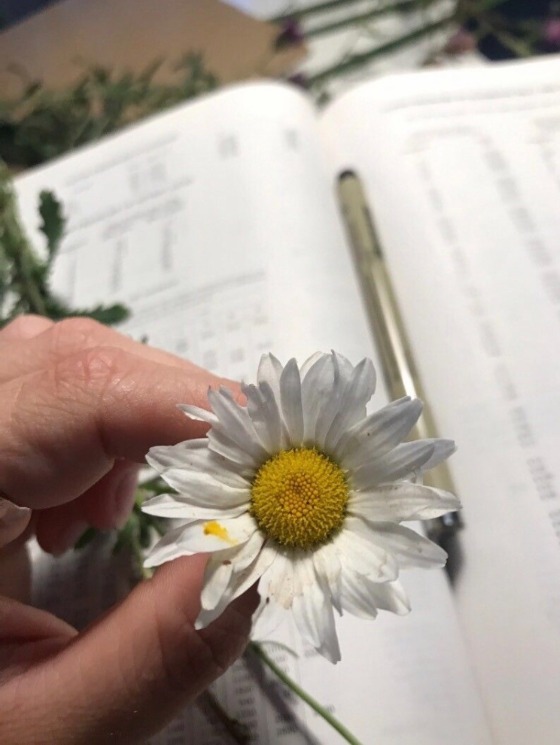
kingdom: Plantae
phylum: Tracheophyta
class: Magnoliopsida
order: Asterales
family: Asteraceae
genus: Leucanthemum
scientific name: Leucanthemum vulgare
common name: Hvid okseøje
